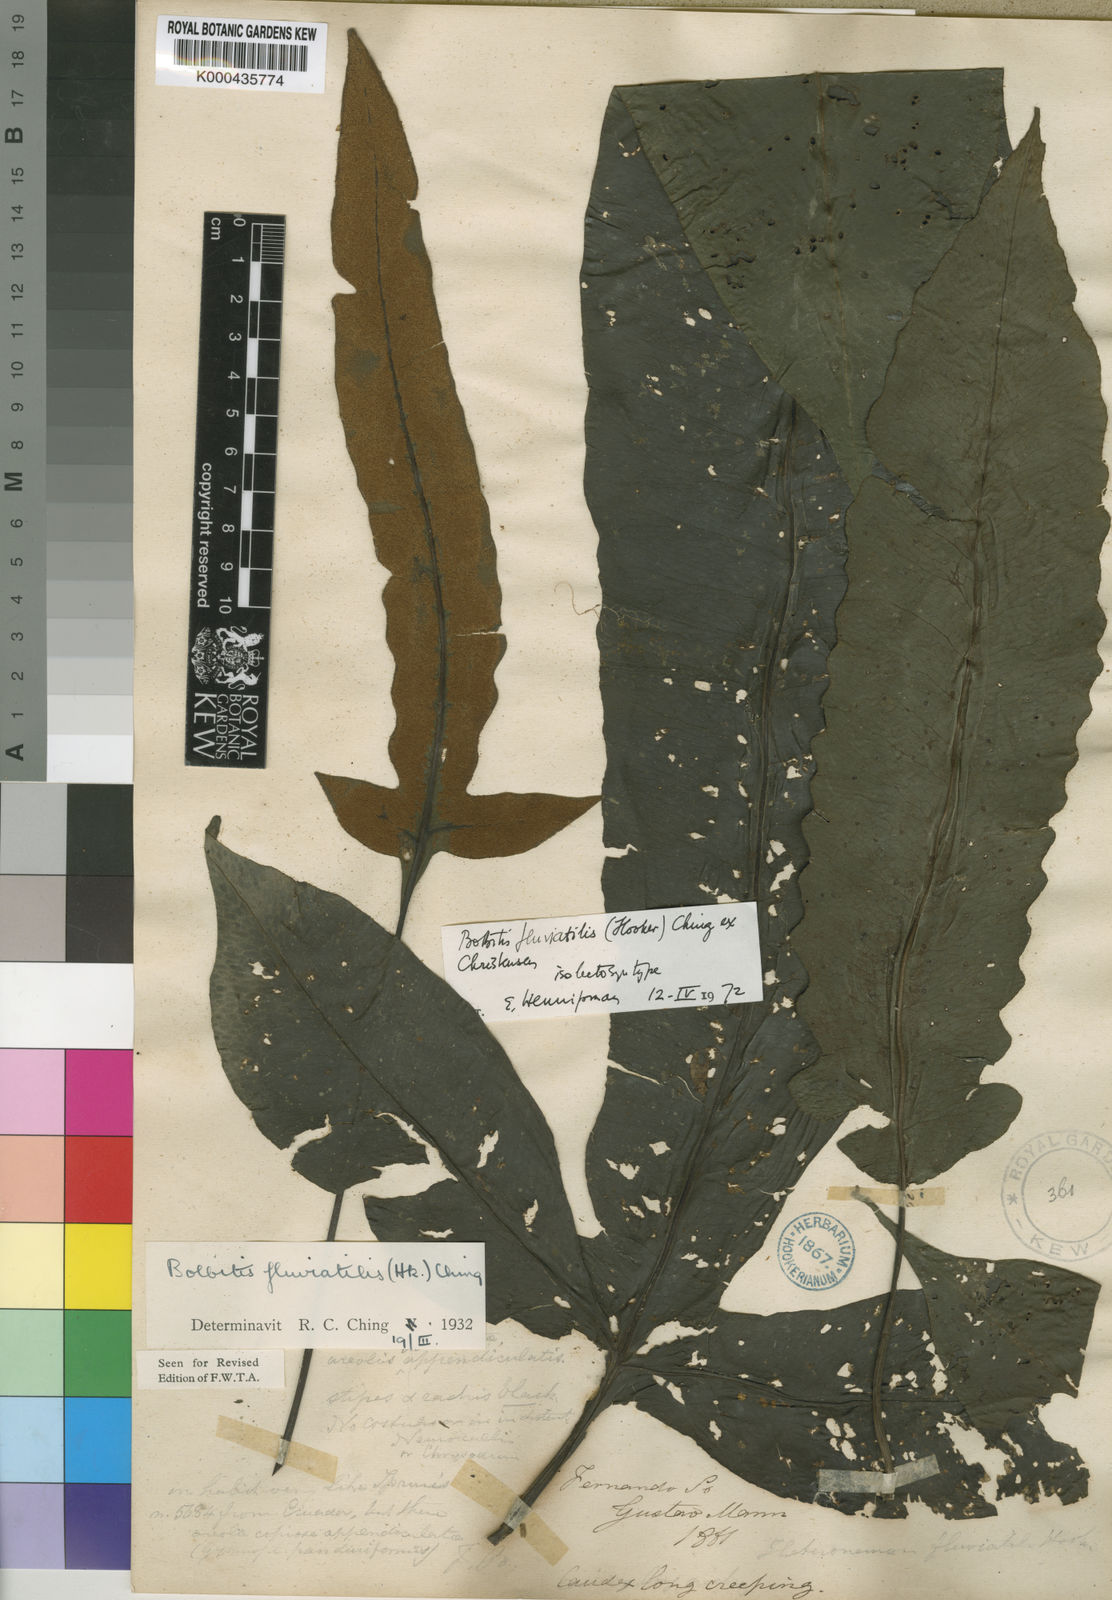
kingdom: Plantae
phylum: Tracheophyta
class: Polypodiopsida
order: Polypodiales
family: Dryopteridaceae
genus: Bolbitis
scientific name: Bolbitis fluviatilis
